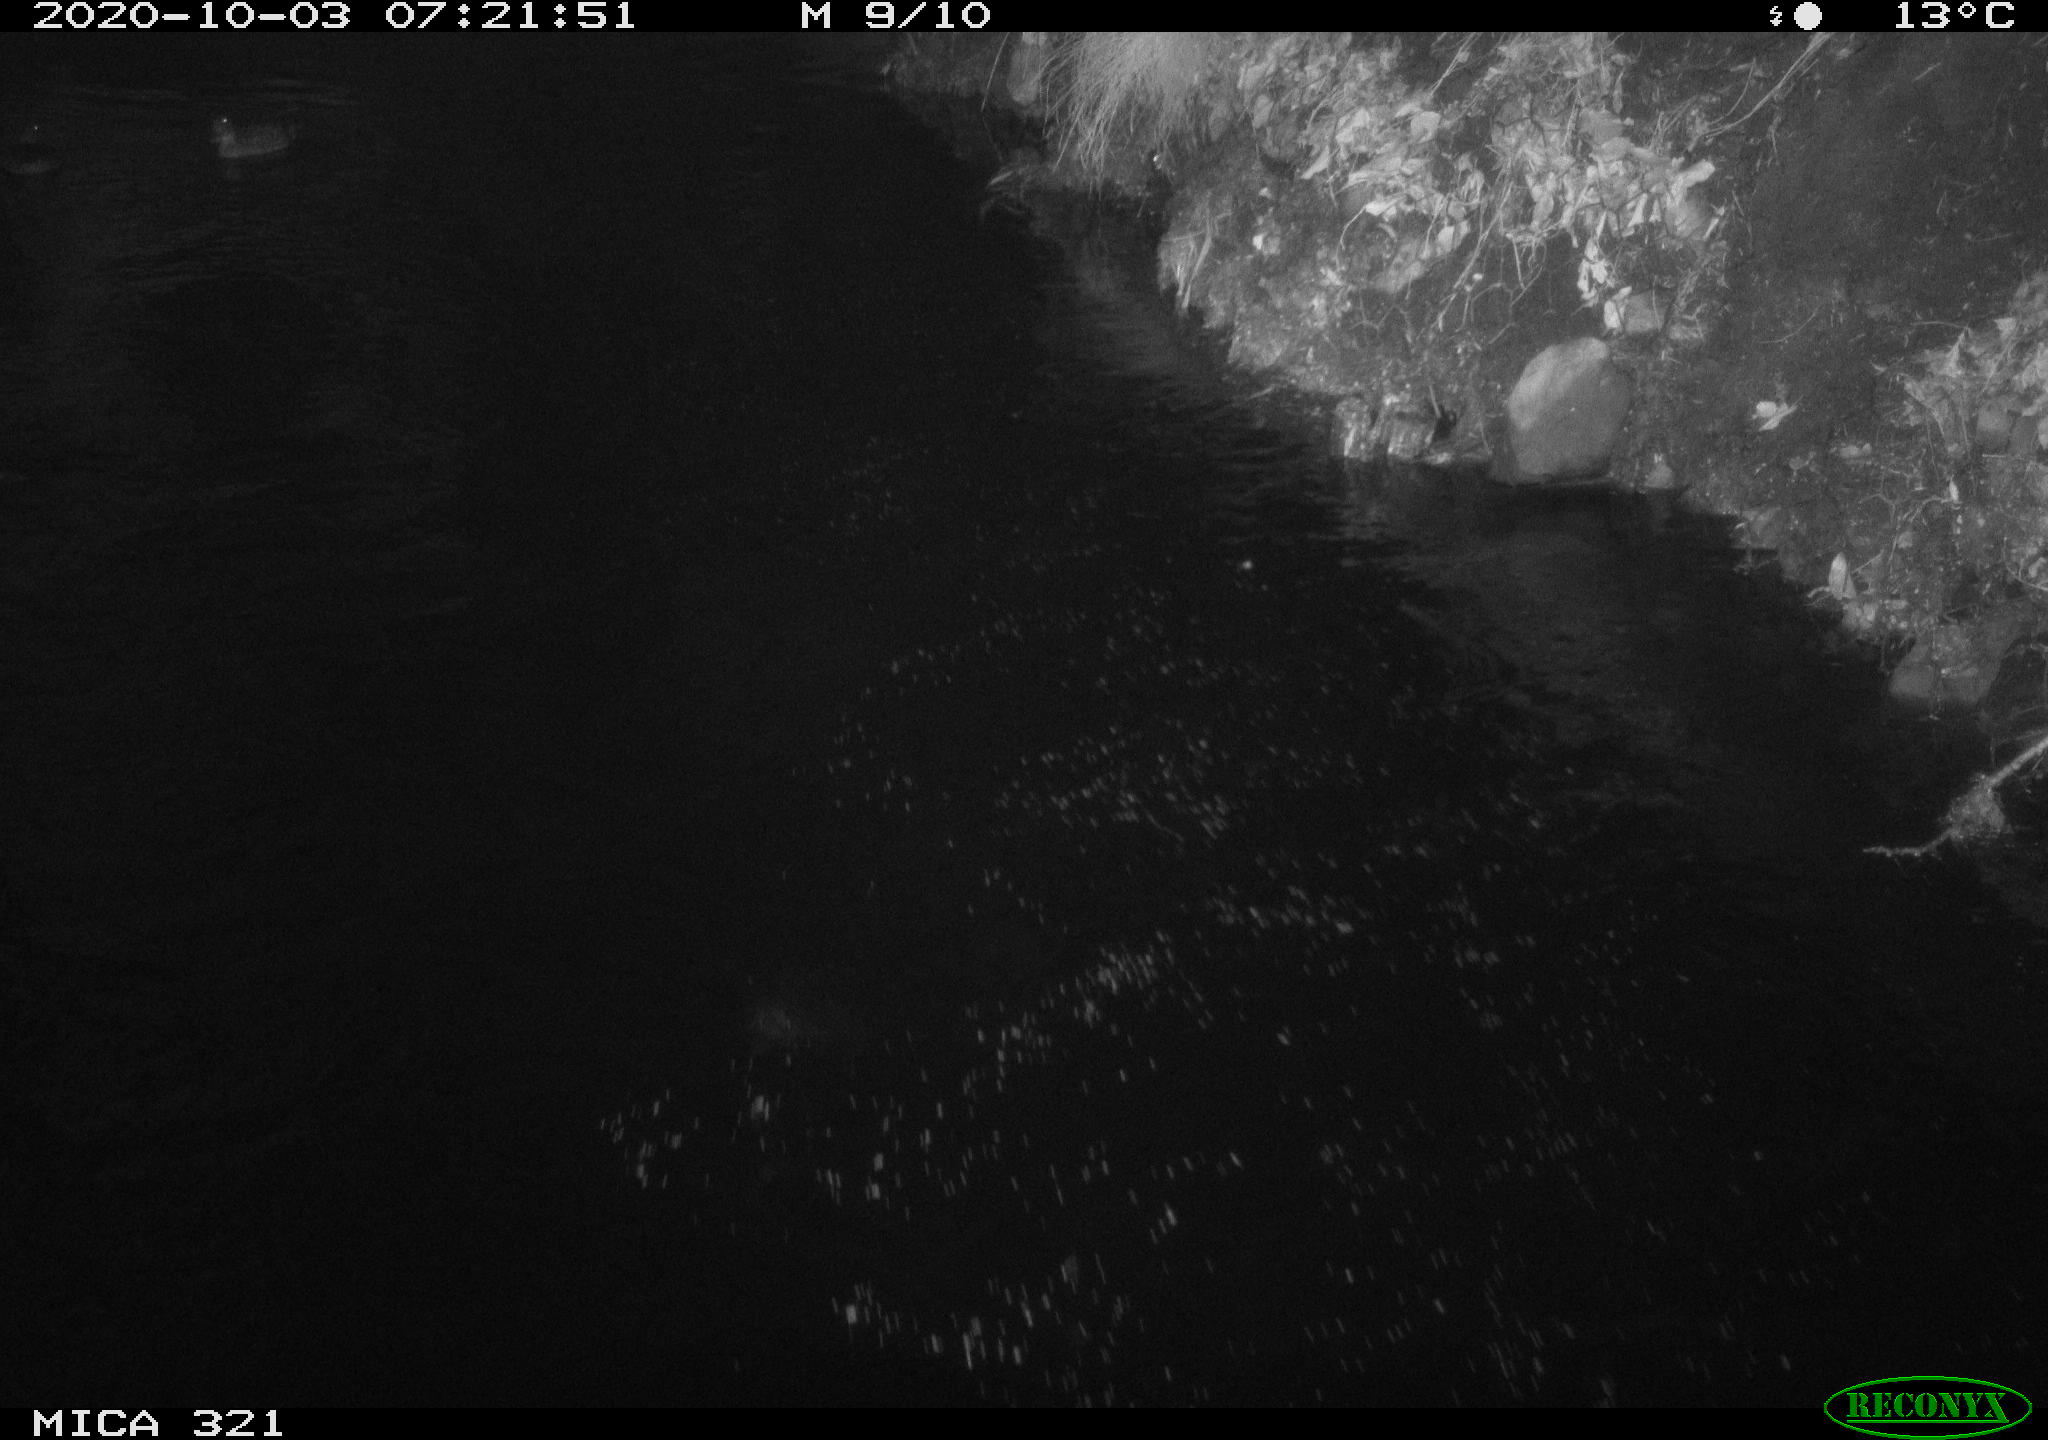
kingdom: Animalia
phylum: Chordata
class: Aves
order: Anseriformes
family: Anatidae
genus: Anas
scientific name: Anas platyrhynchos
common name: Mallard
